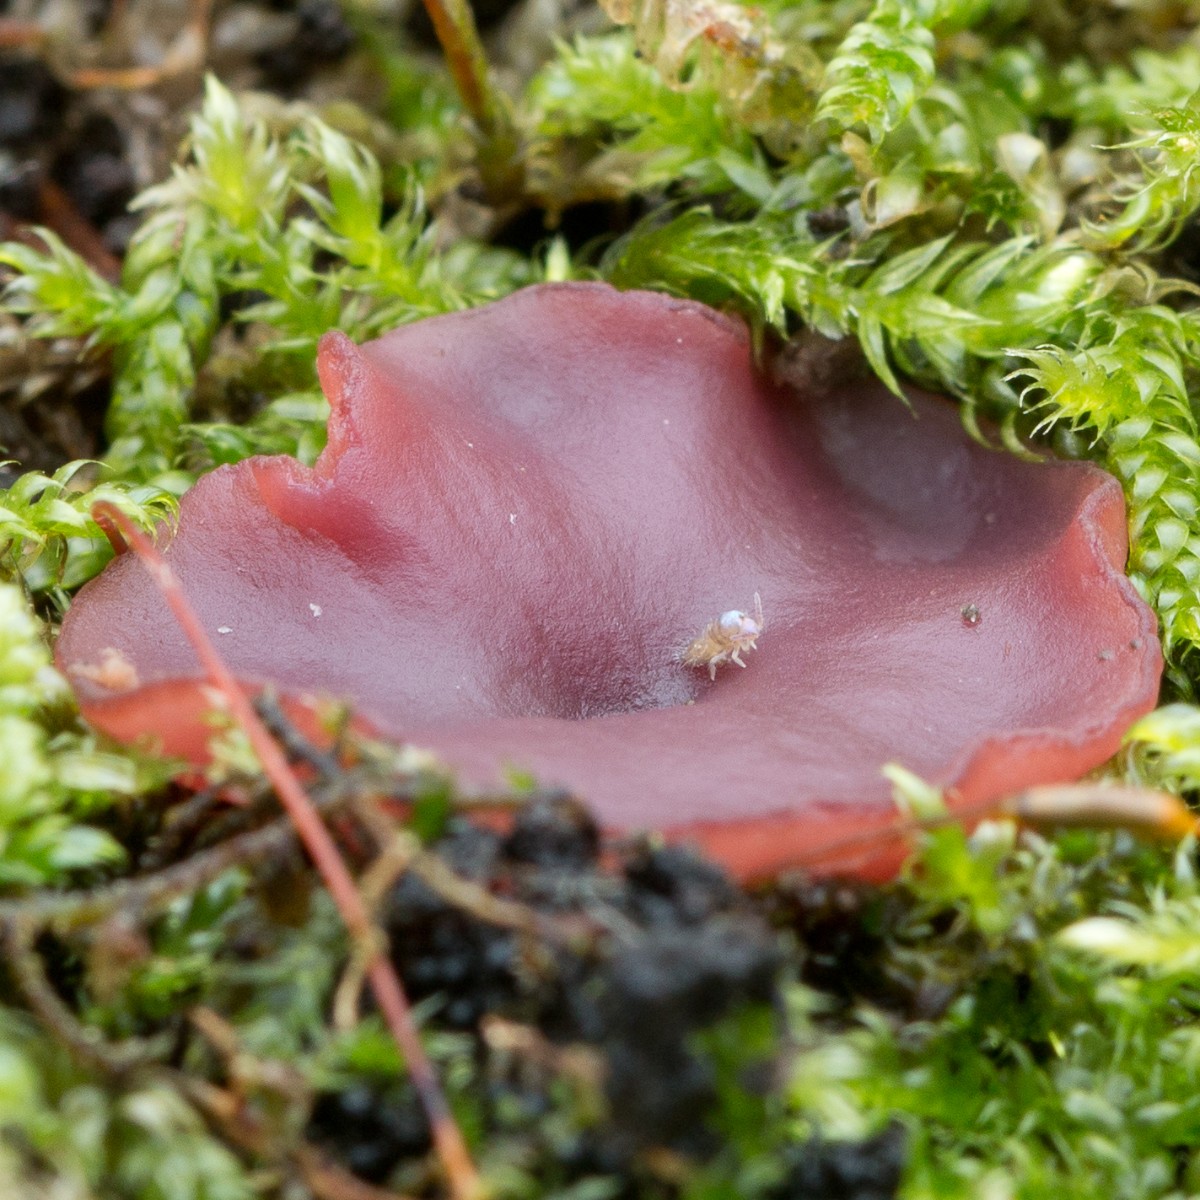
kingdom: Fungi
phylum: Ascomycota
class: Leotiomycetes
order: Helotiales
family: Gelatinodiscaceae
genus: Ascocoryne
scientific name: Ascocoryne cylichnium
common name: stor sejskive
